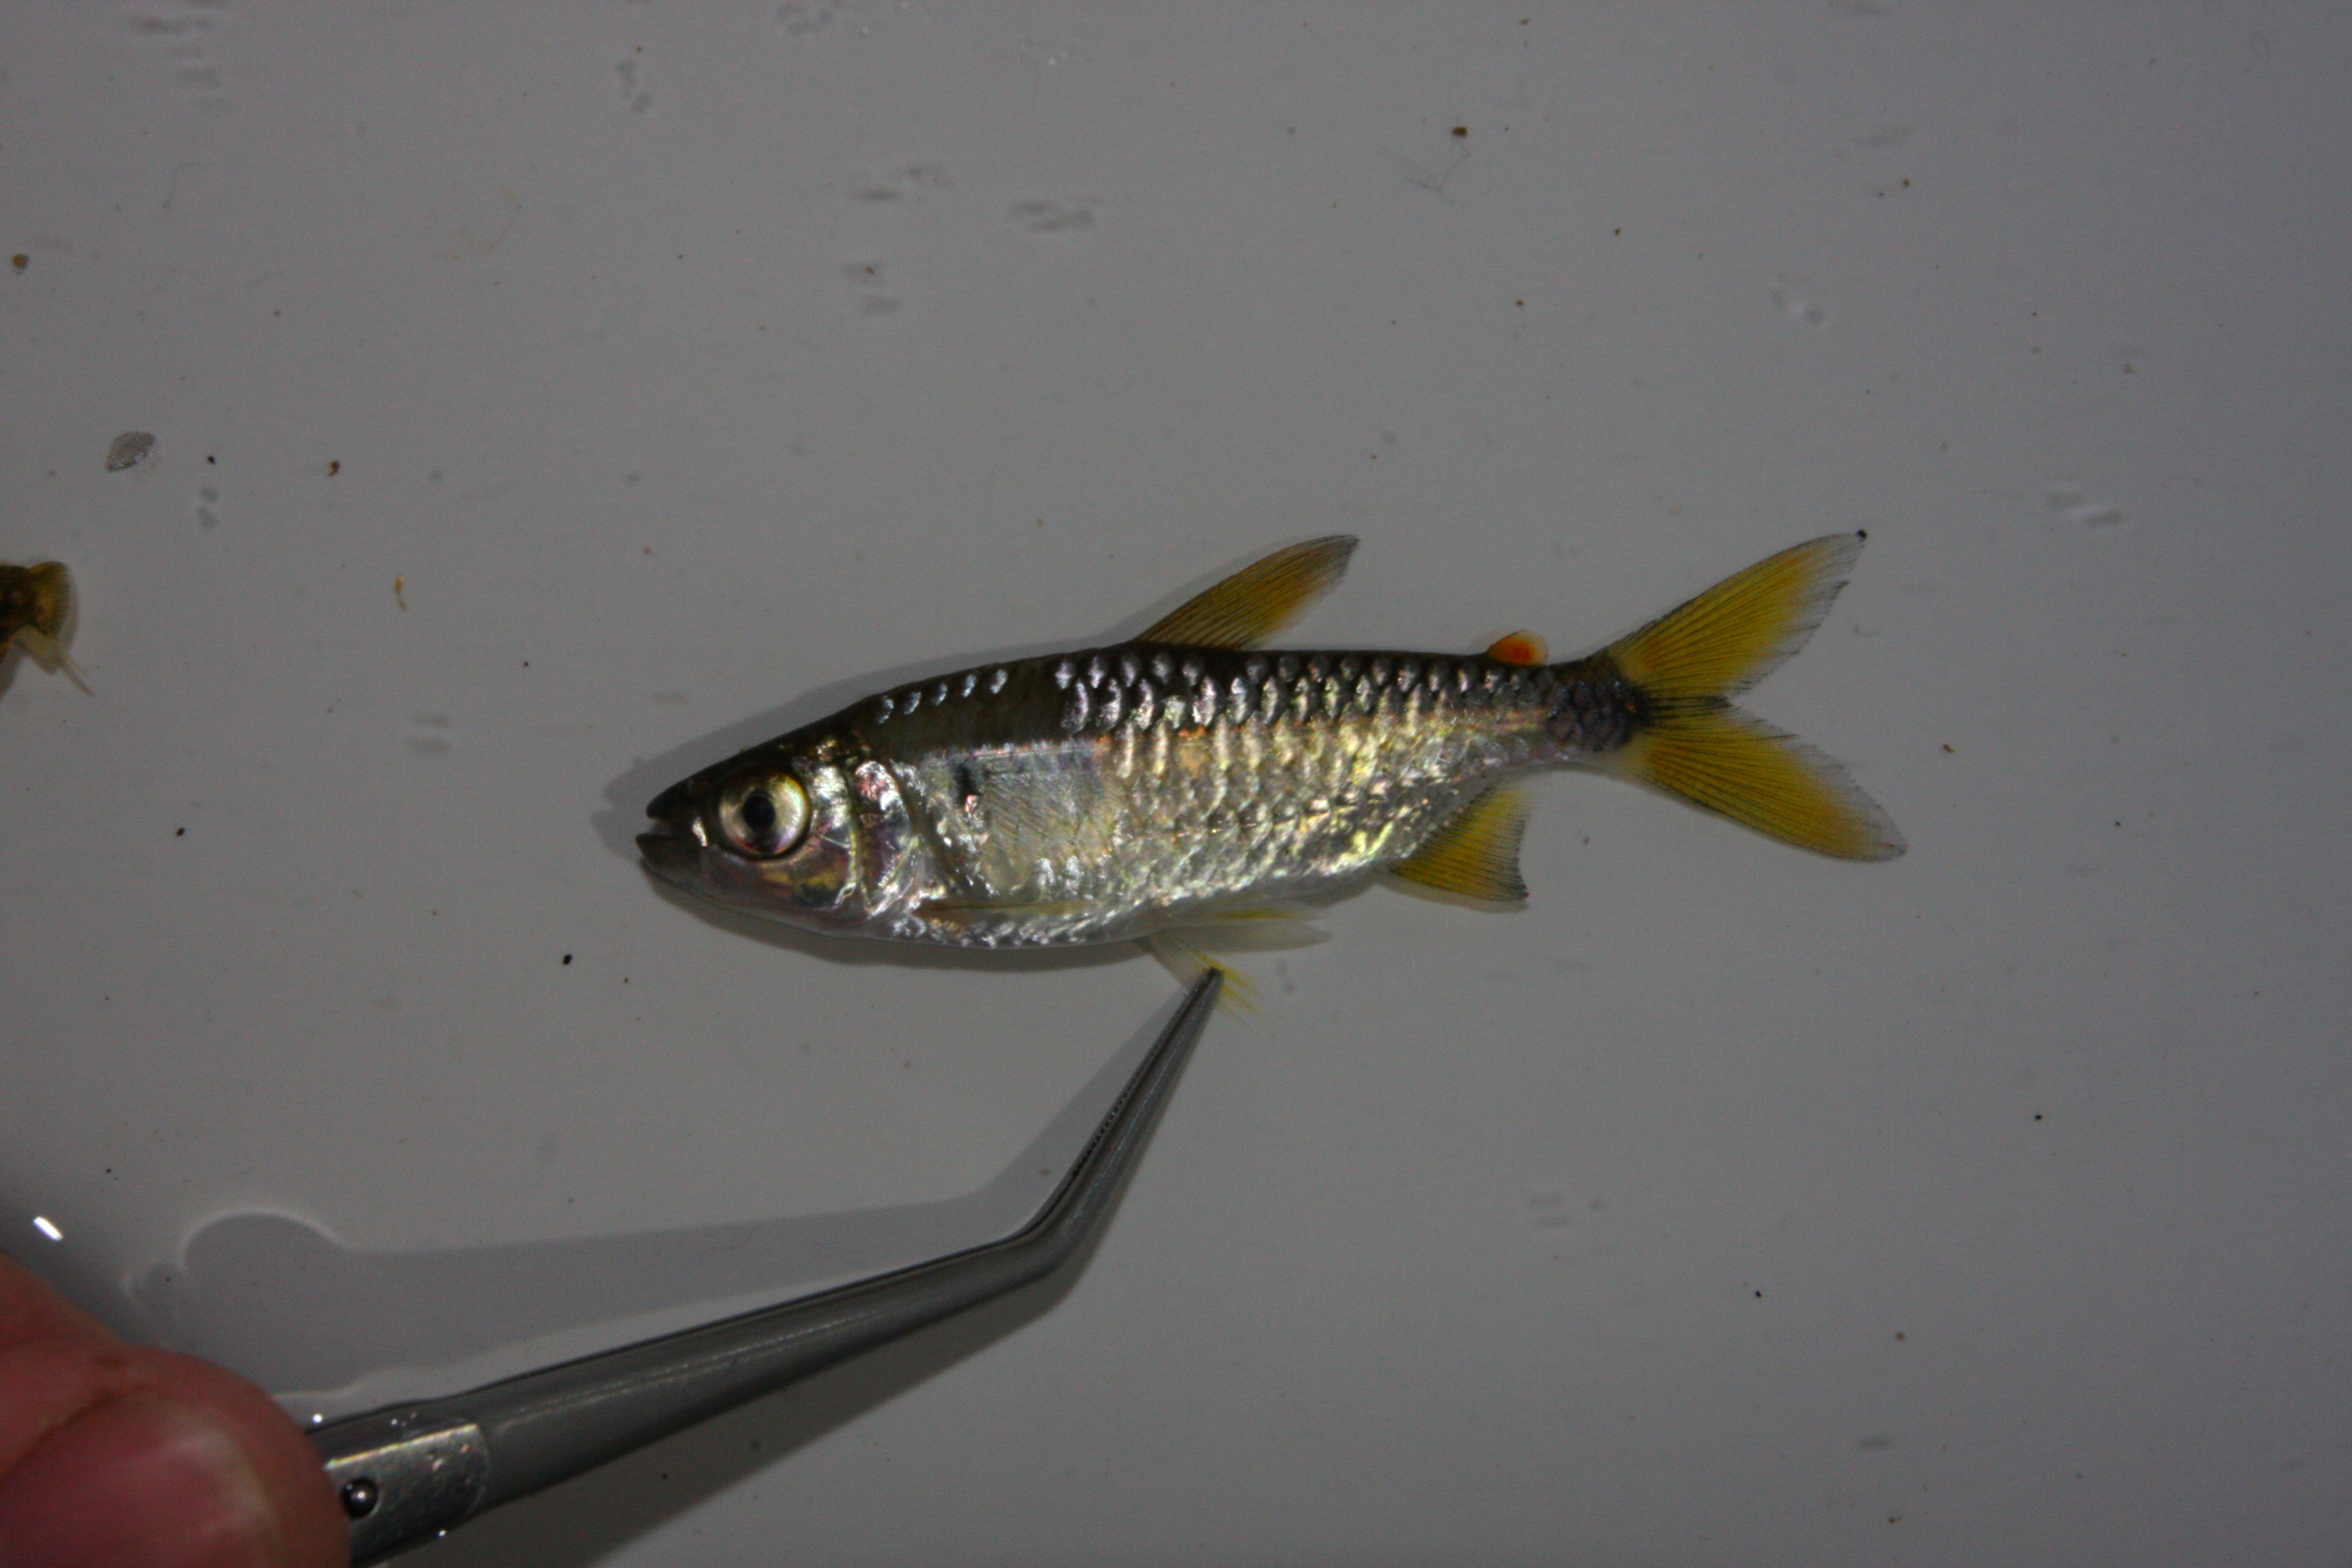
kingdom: Animalia
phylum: Chordata
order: Characiformes
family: Alestidae
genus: Brycinus
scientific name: Brycinus imberi
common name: Imberi
